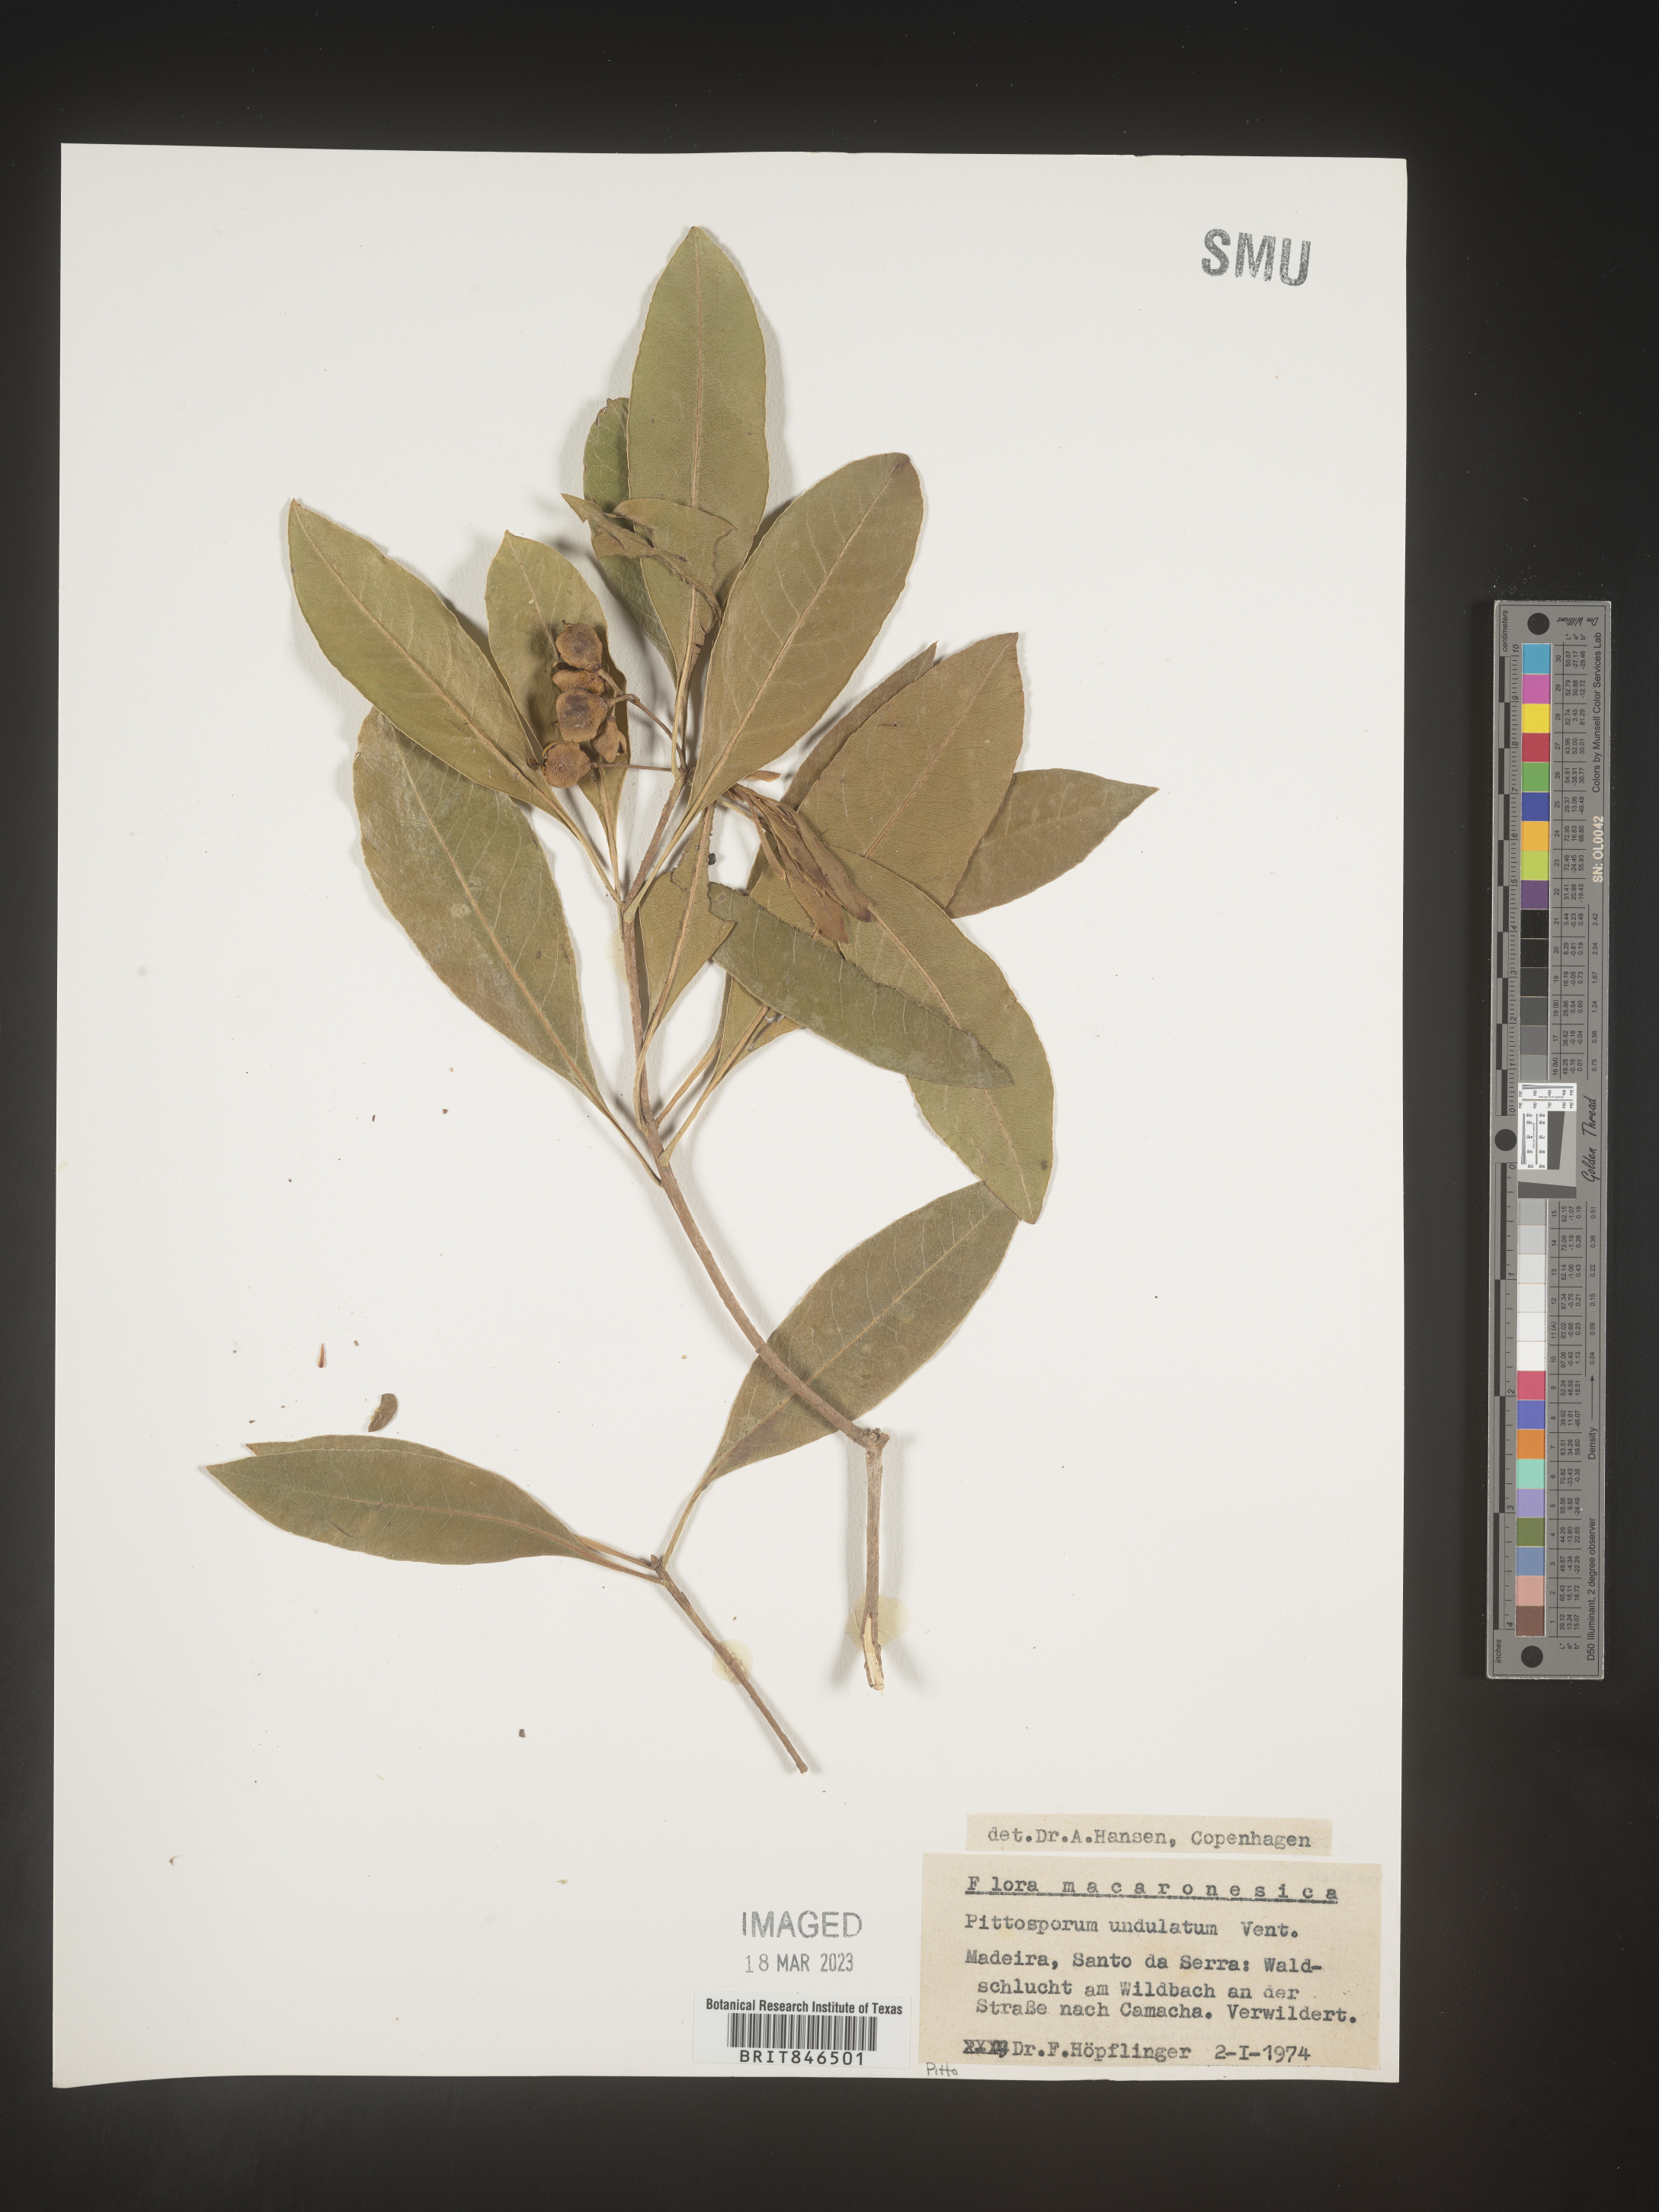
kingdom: Plantae
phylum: Tracheophyta
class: Magnoliopsida
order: Apiales
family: Pittosporaceae
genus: Pittosporum
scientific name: Pittosporum
